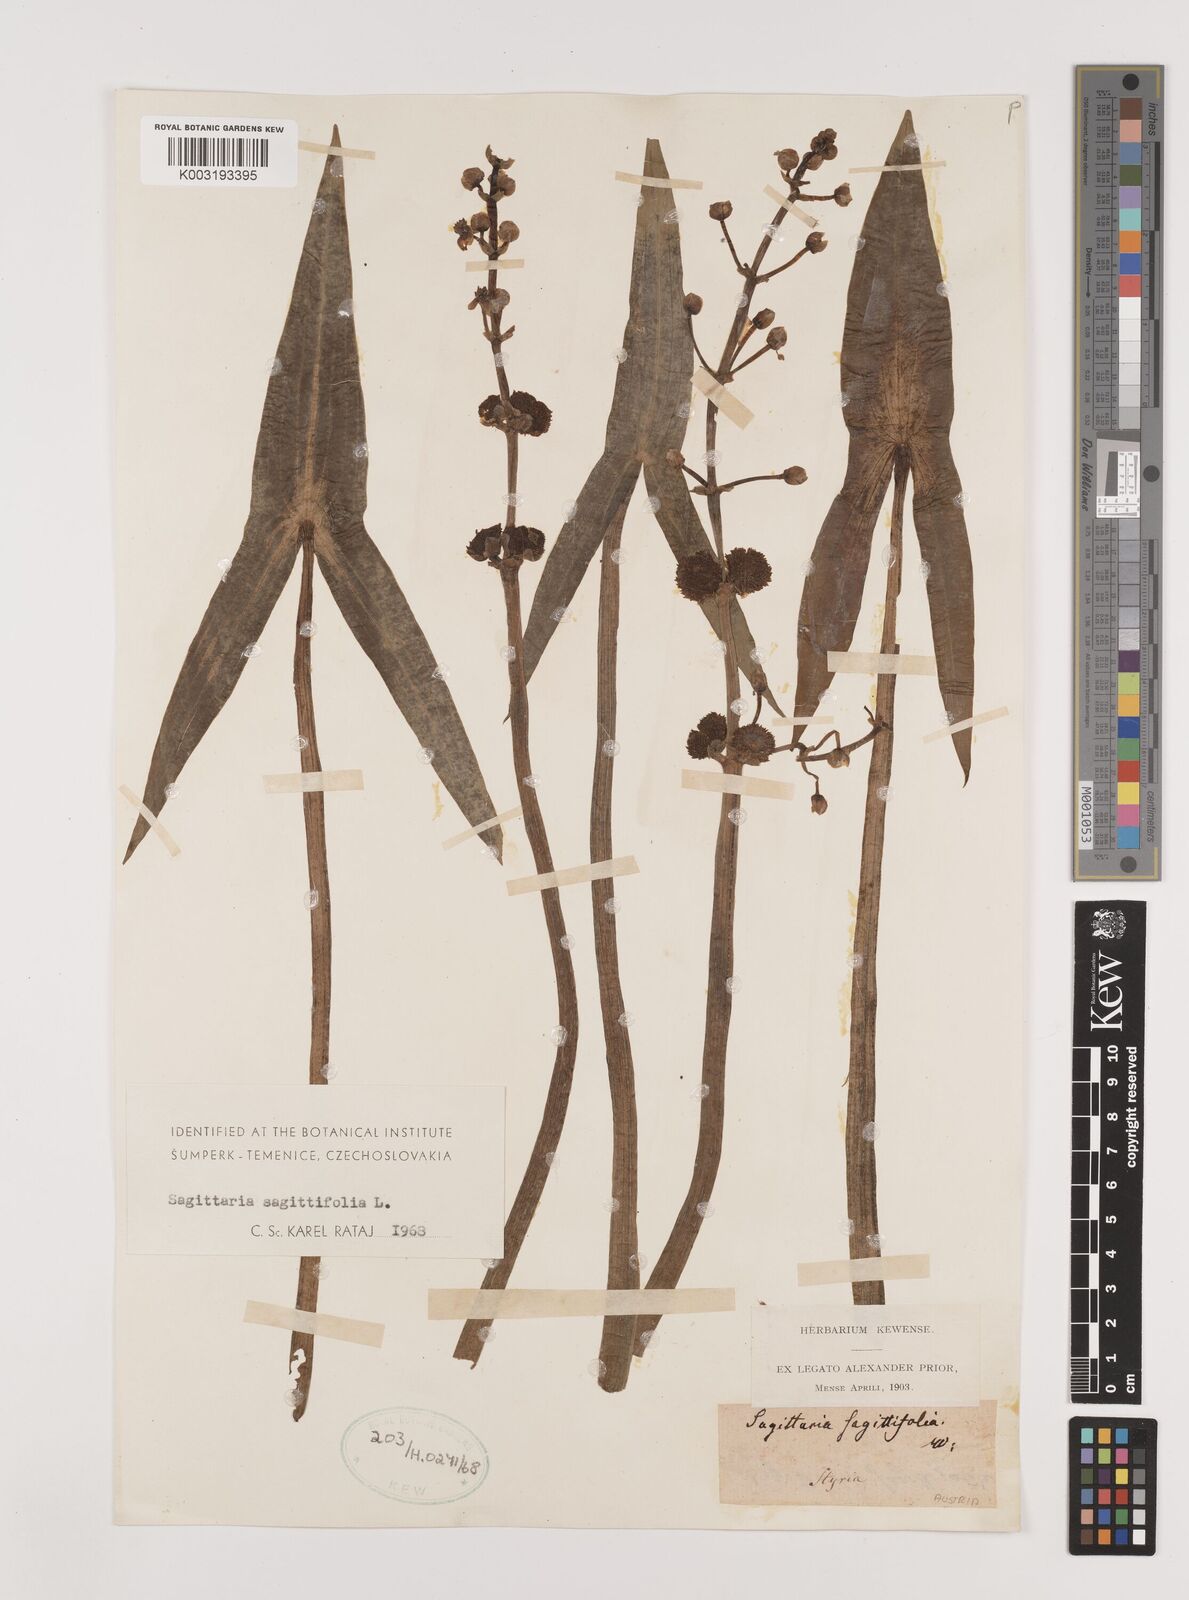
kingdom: Plantae
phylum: Tracheophyta
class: Liliopsida
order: Alismatales
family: Alismataceae
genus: Sagittaria
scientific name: Sagittaria sagittifolia
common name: Arrowhead
